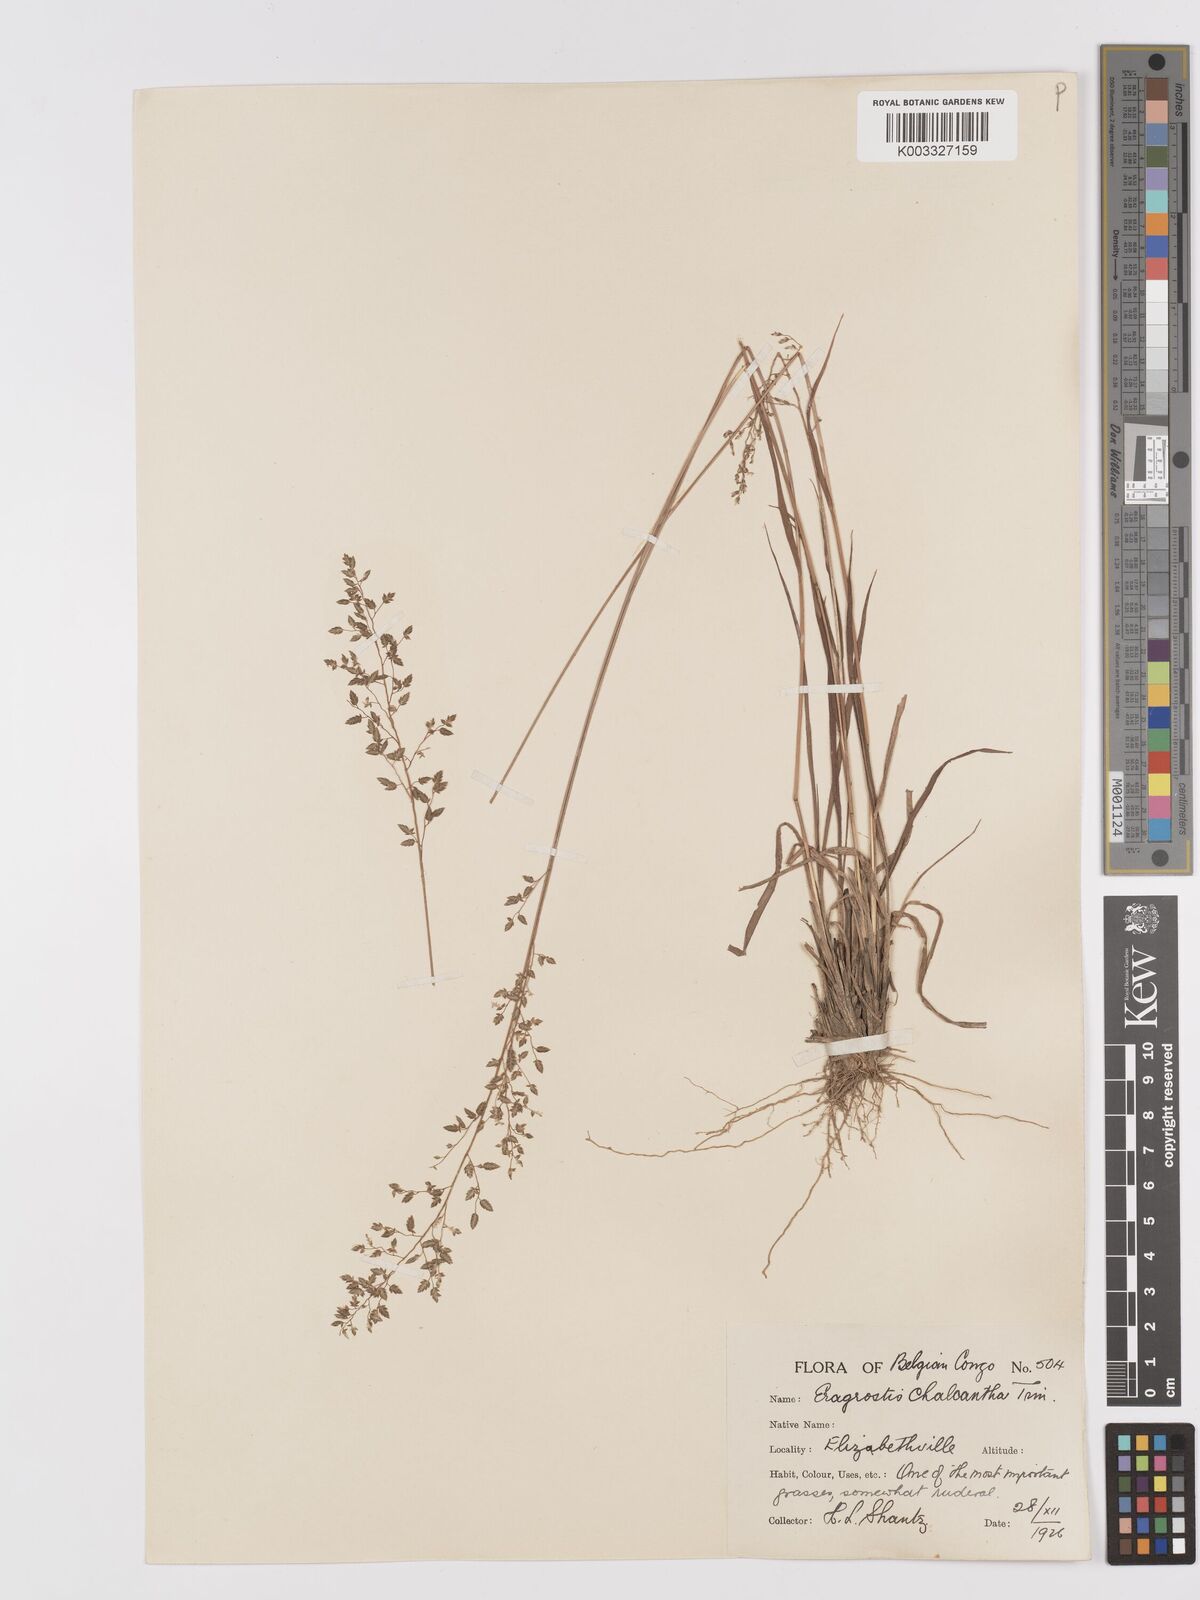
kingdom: Plantae
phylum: Tracheophyta
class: Liliopsida
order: Poales
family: Poaceae
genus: Eragrostis
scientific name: Eragrostis racemosa
